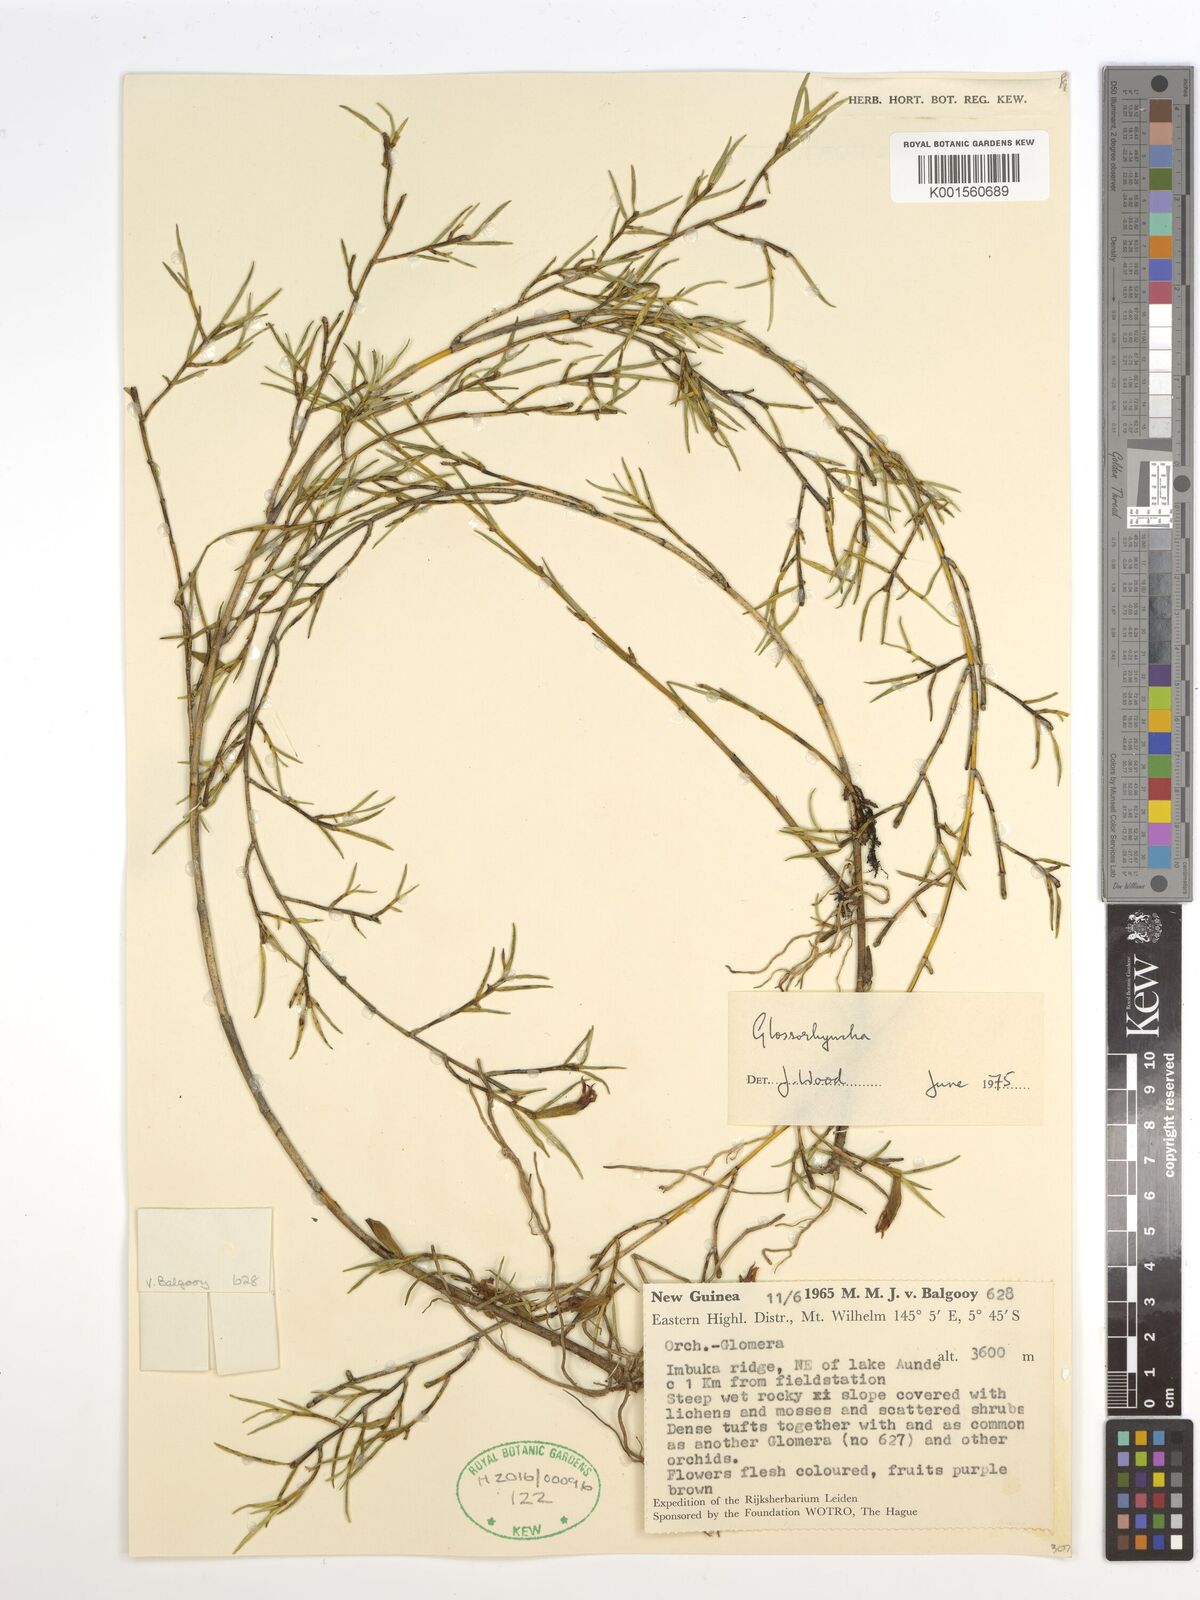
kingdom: Plantae
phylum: Tracheophyta
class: Liliopsida
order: Asparagales
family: Orchidaceae
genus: Glomera
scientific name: Glomera
